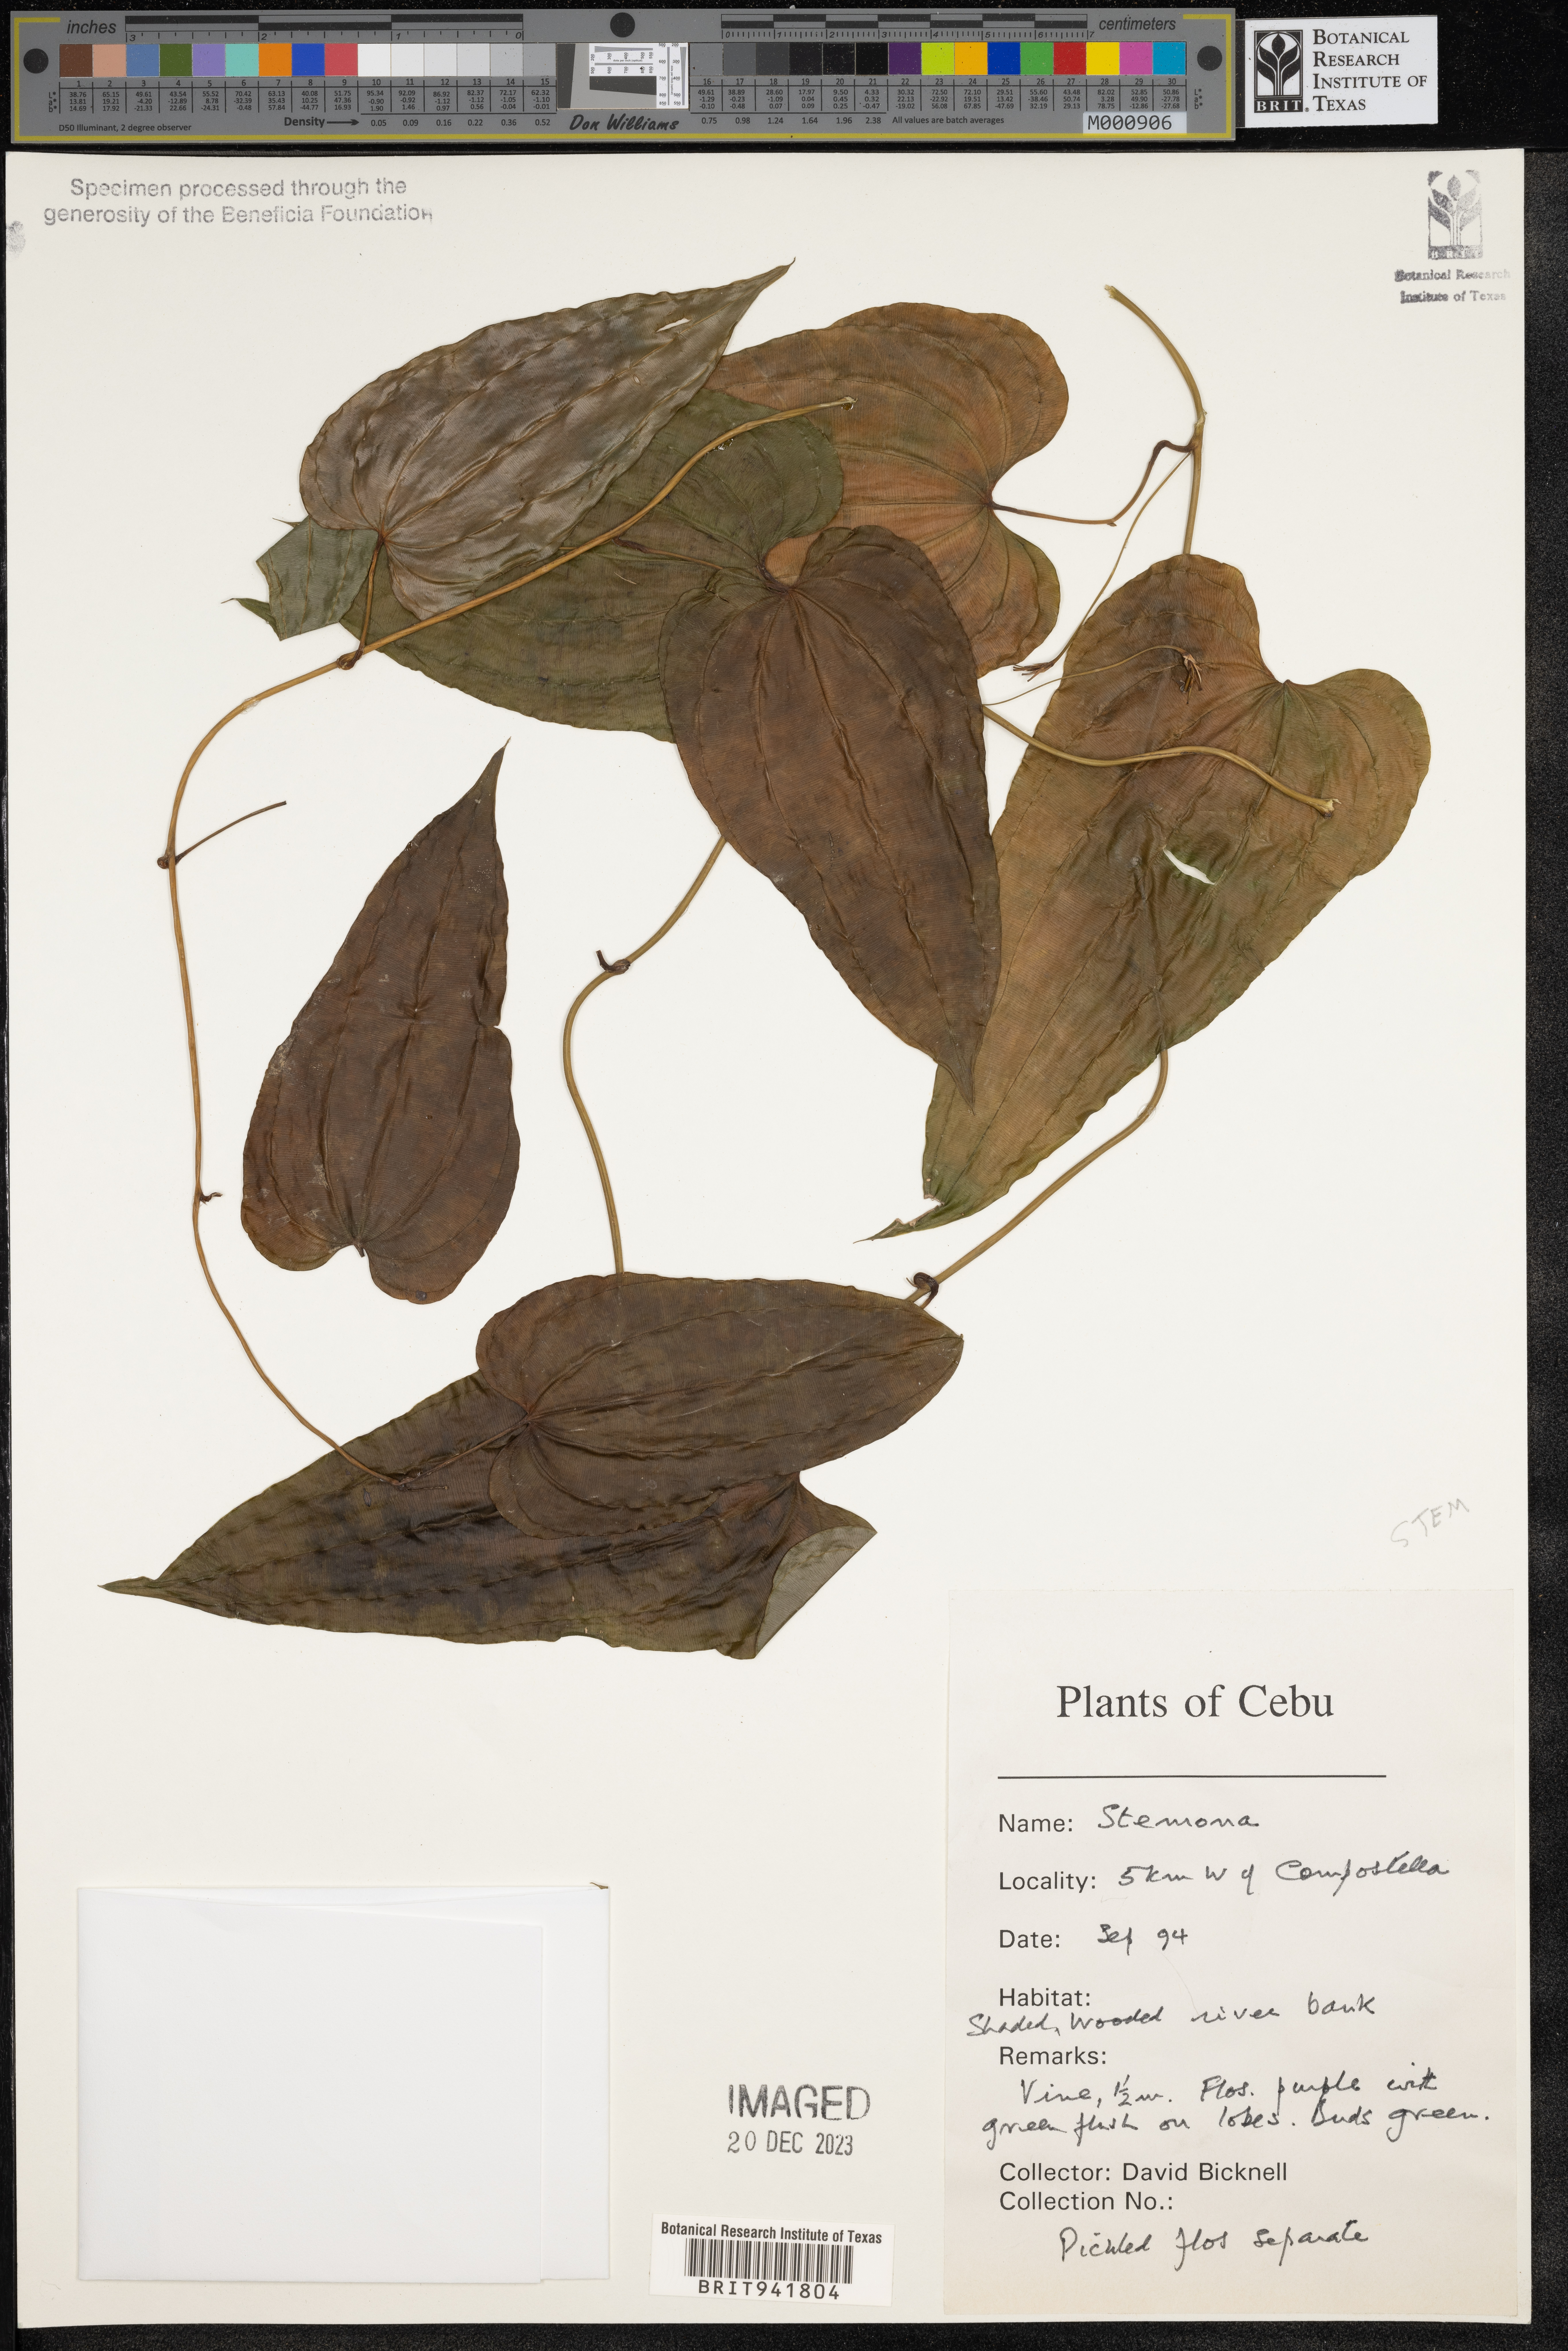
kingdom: Plantae
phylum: Tracheophyta
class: Liliopsida
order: Pandanales
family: Stemonaceae
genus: Stemona
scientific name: Stemona
